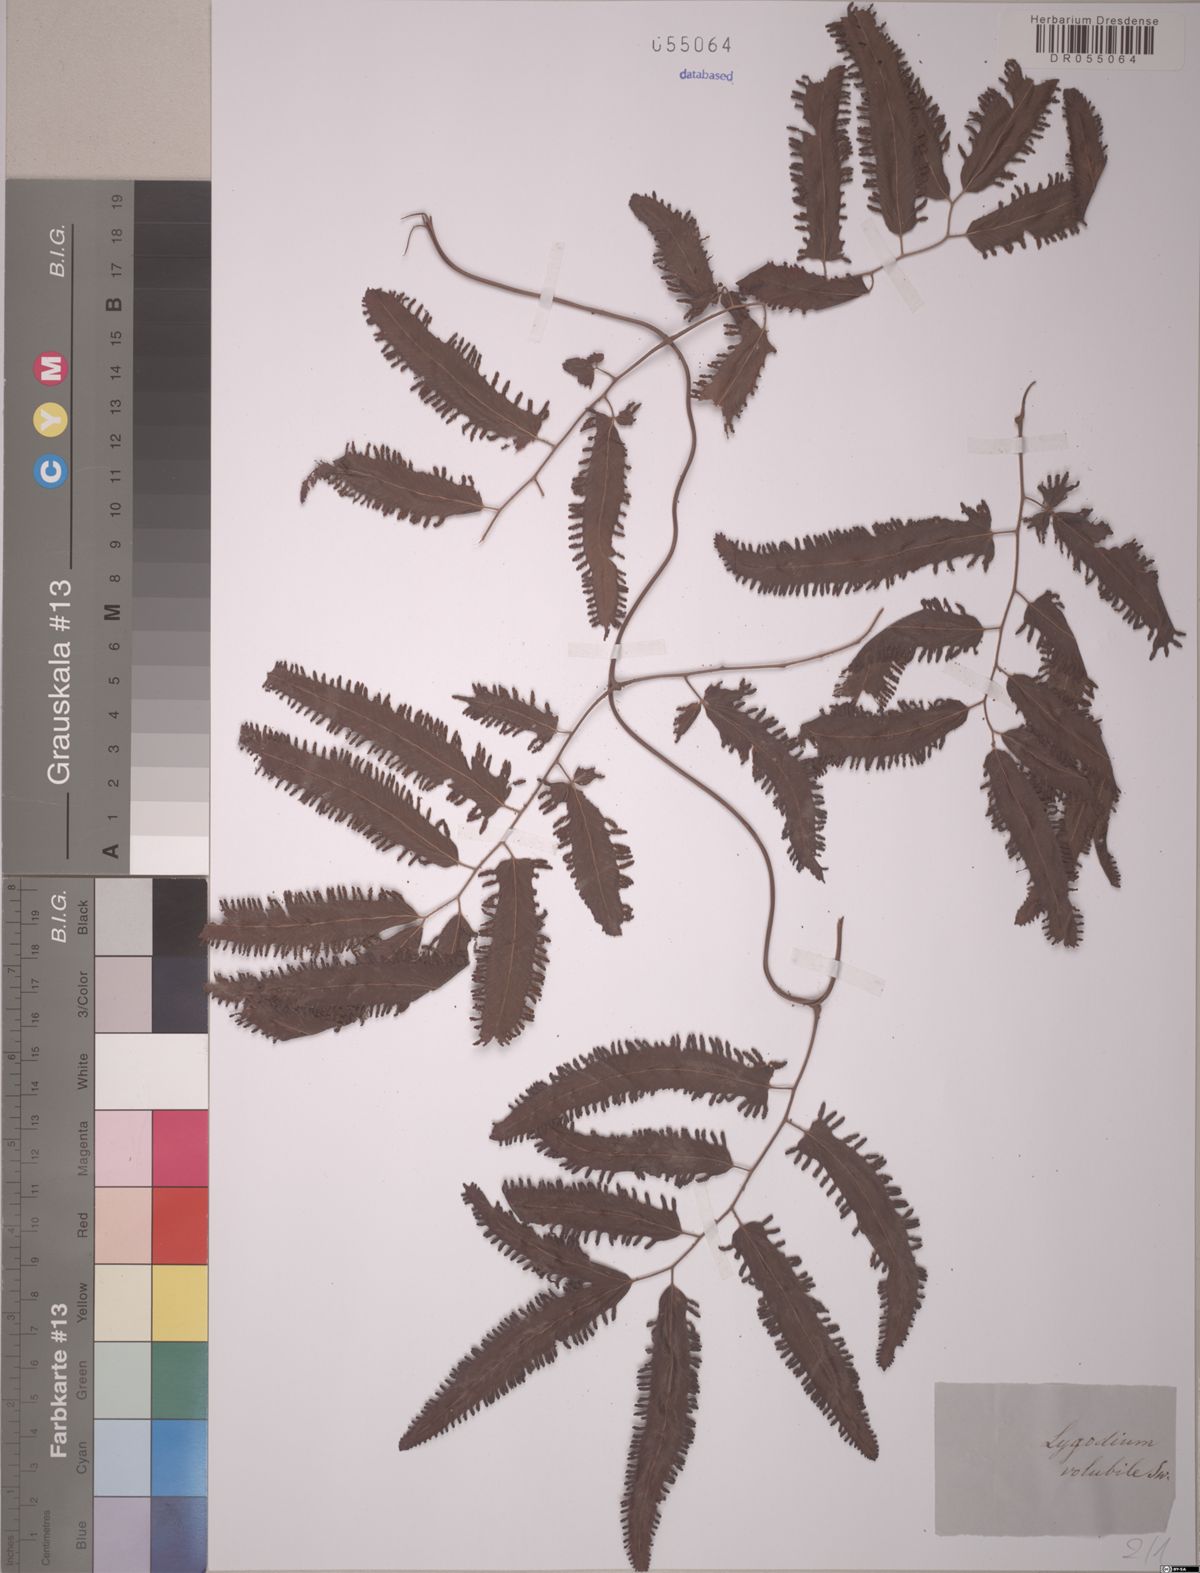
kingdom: Plantae
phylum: Tracheophyta
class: Polypodiopsida
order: Schizaeales
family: Lygodiaceae
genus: Lygodium
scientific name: Lygodium volubile
